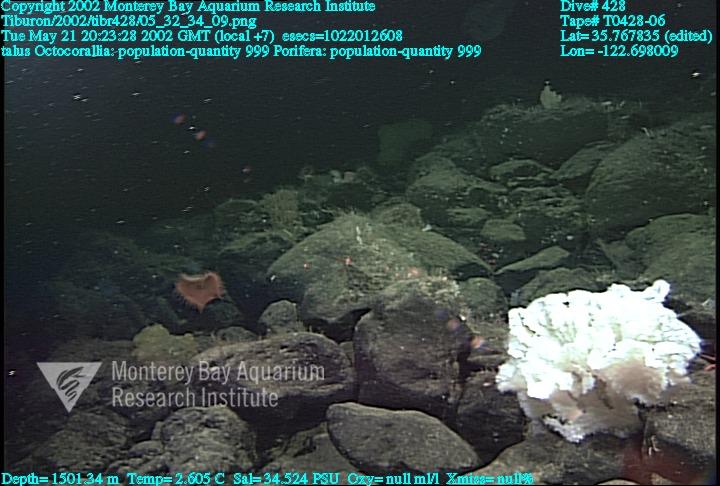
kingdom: Animalia
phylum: Porifera
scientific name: Porifera
